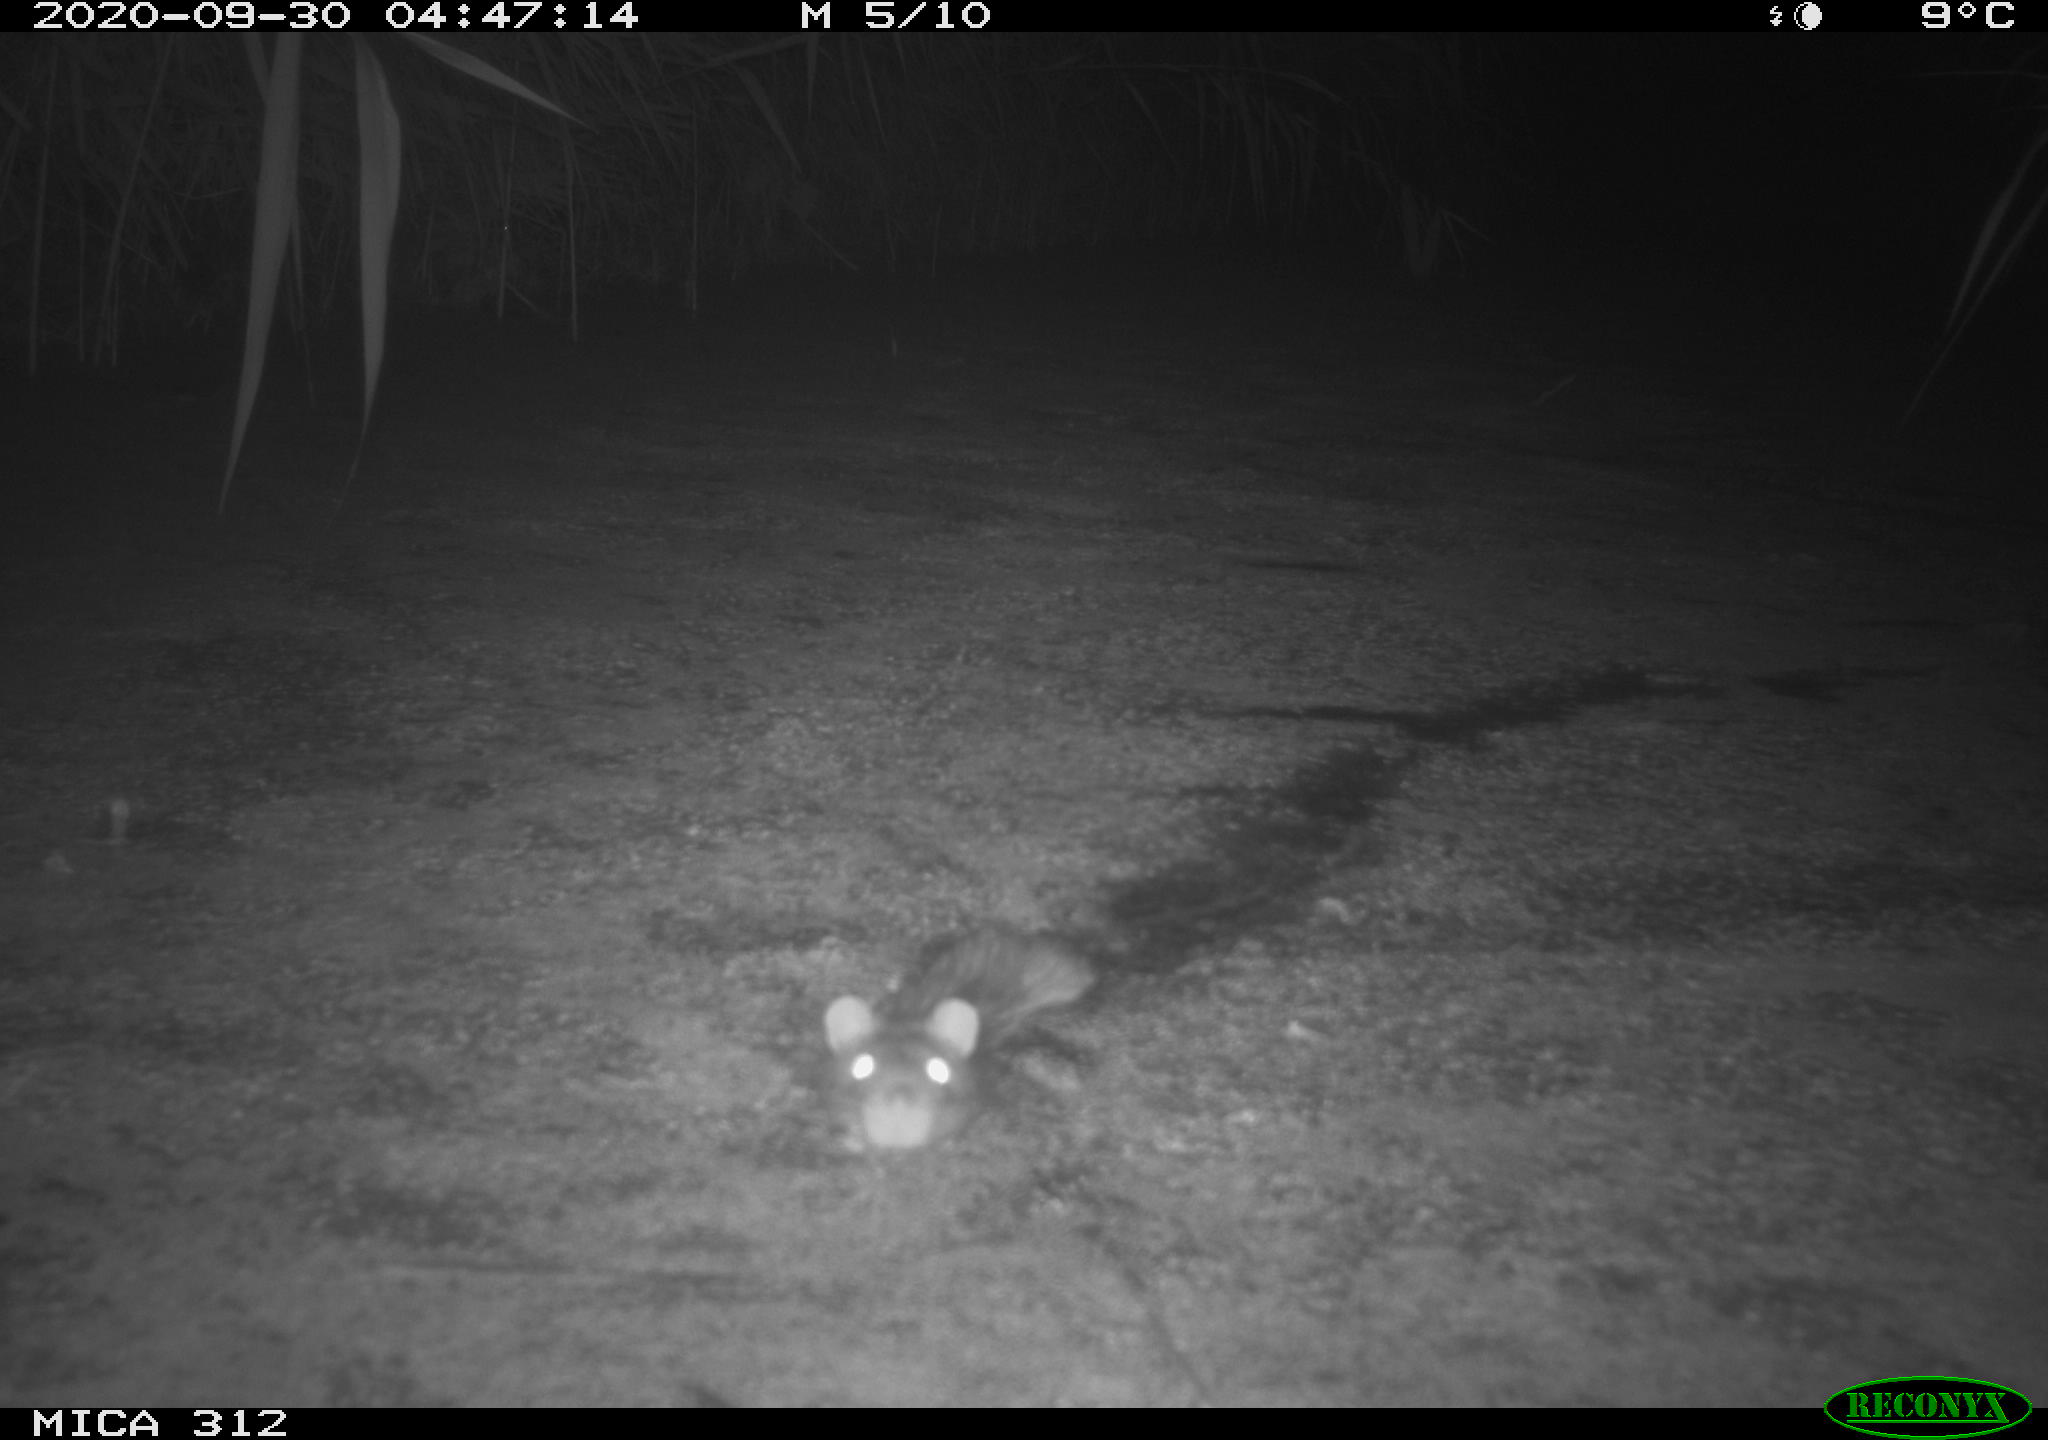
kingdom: Animalia
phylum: Chordata
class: Mammalia
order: Rodentia
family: Cricetidae
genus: Ondatra
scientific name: Ondatra zibethicus
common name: Muskrat
